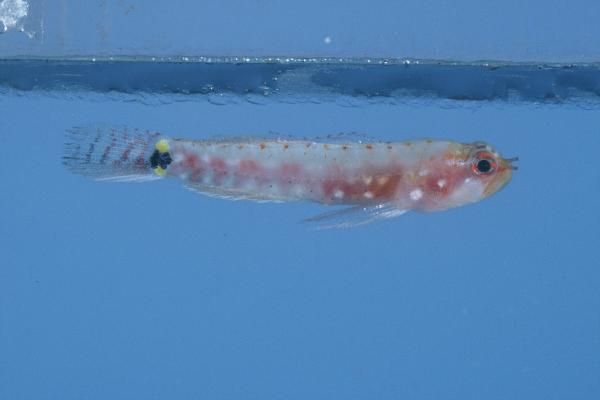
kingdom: Animalia
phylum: Chordata
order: Perciformes
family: Gobiidae
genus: Eviota
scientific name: Eviota zebrina
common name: Five-bar pygmy-goby
